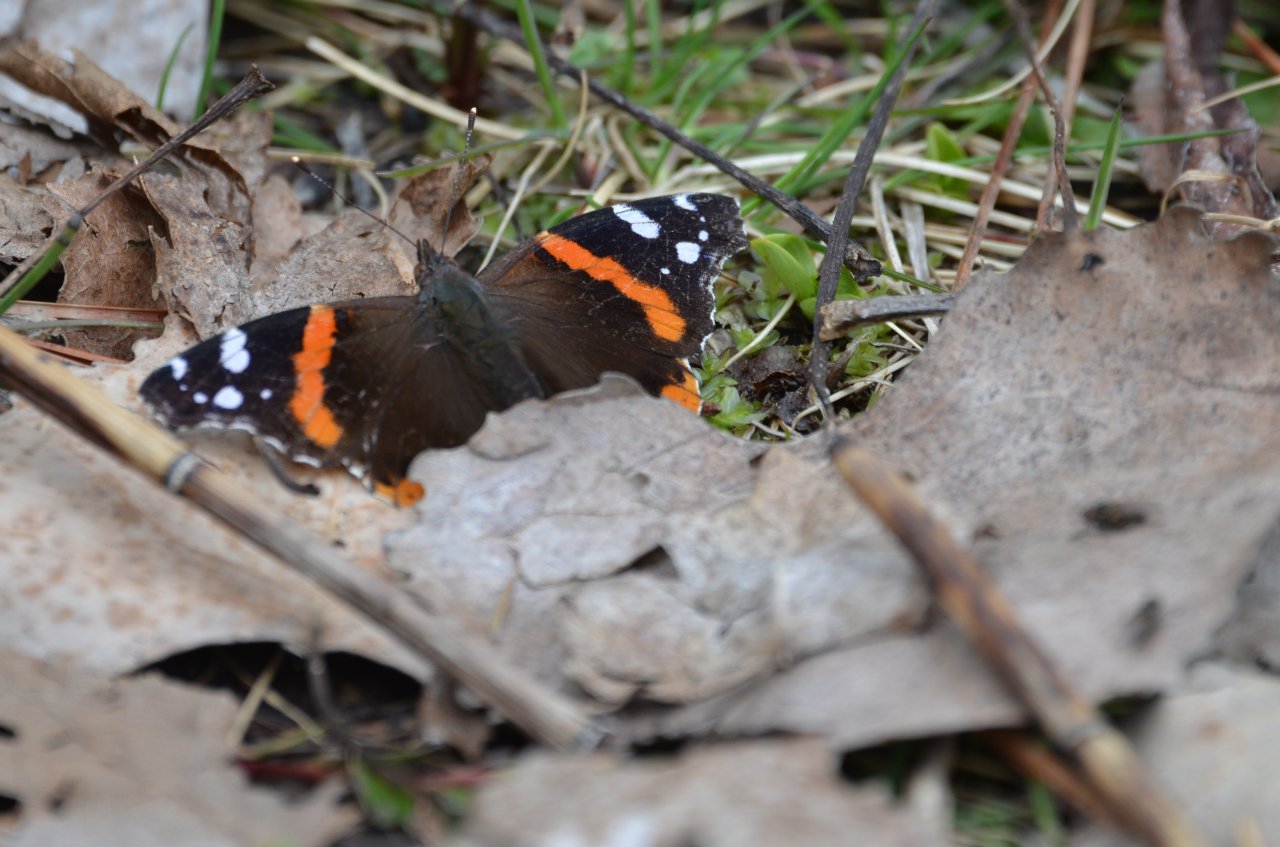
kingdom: Animalia
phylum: Arthropoda
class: Insecta
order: Lepidoptera
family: Nymphalidae
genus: Vanessa
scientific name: Vanessa atalanta
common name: Red Admiral
